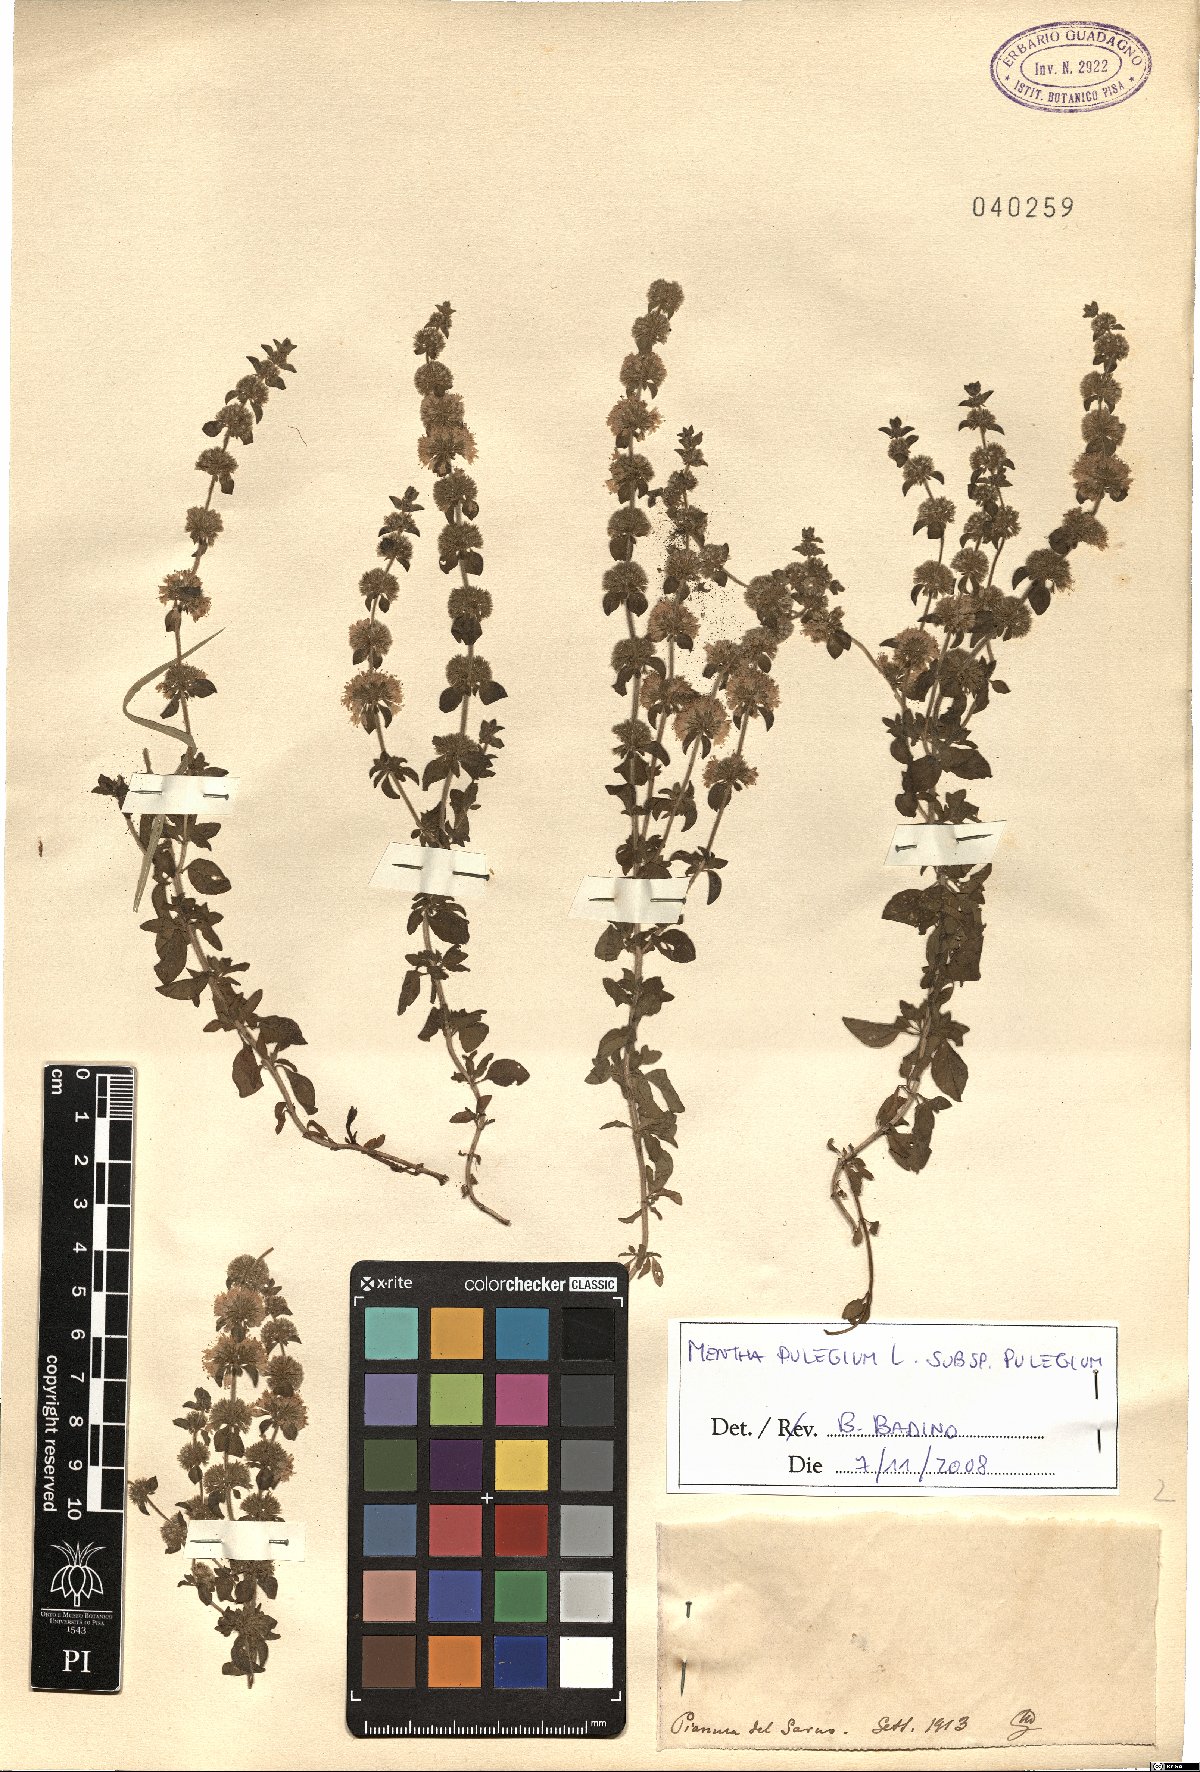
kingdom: Plantae
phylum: Tracheophyta
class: Magnoliopsida
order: Lamiales
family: Lamiaceae
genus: Mentha
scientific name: Mentha pulegium
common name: Pennyroyal
